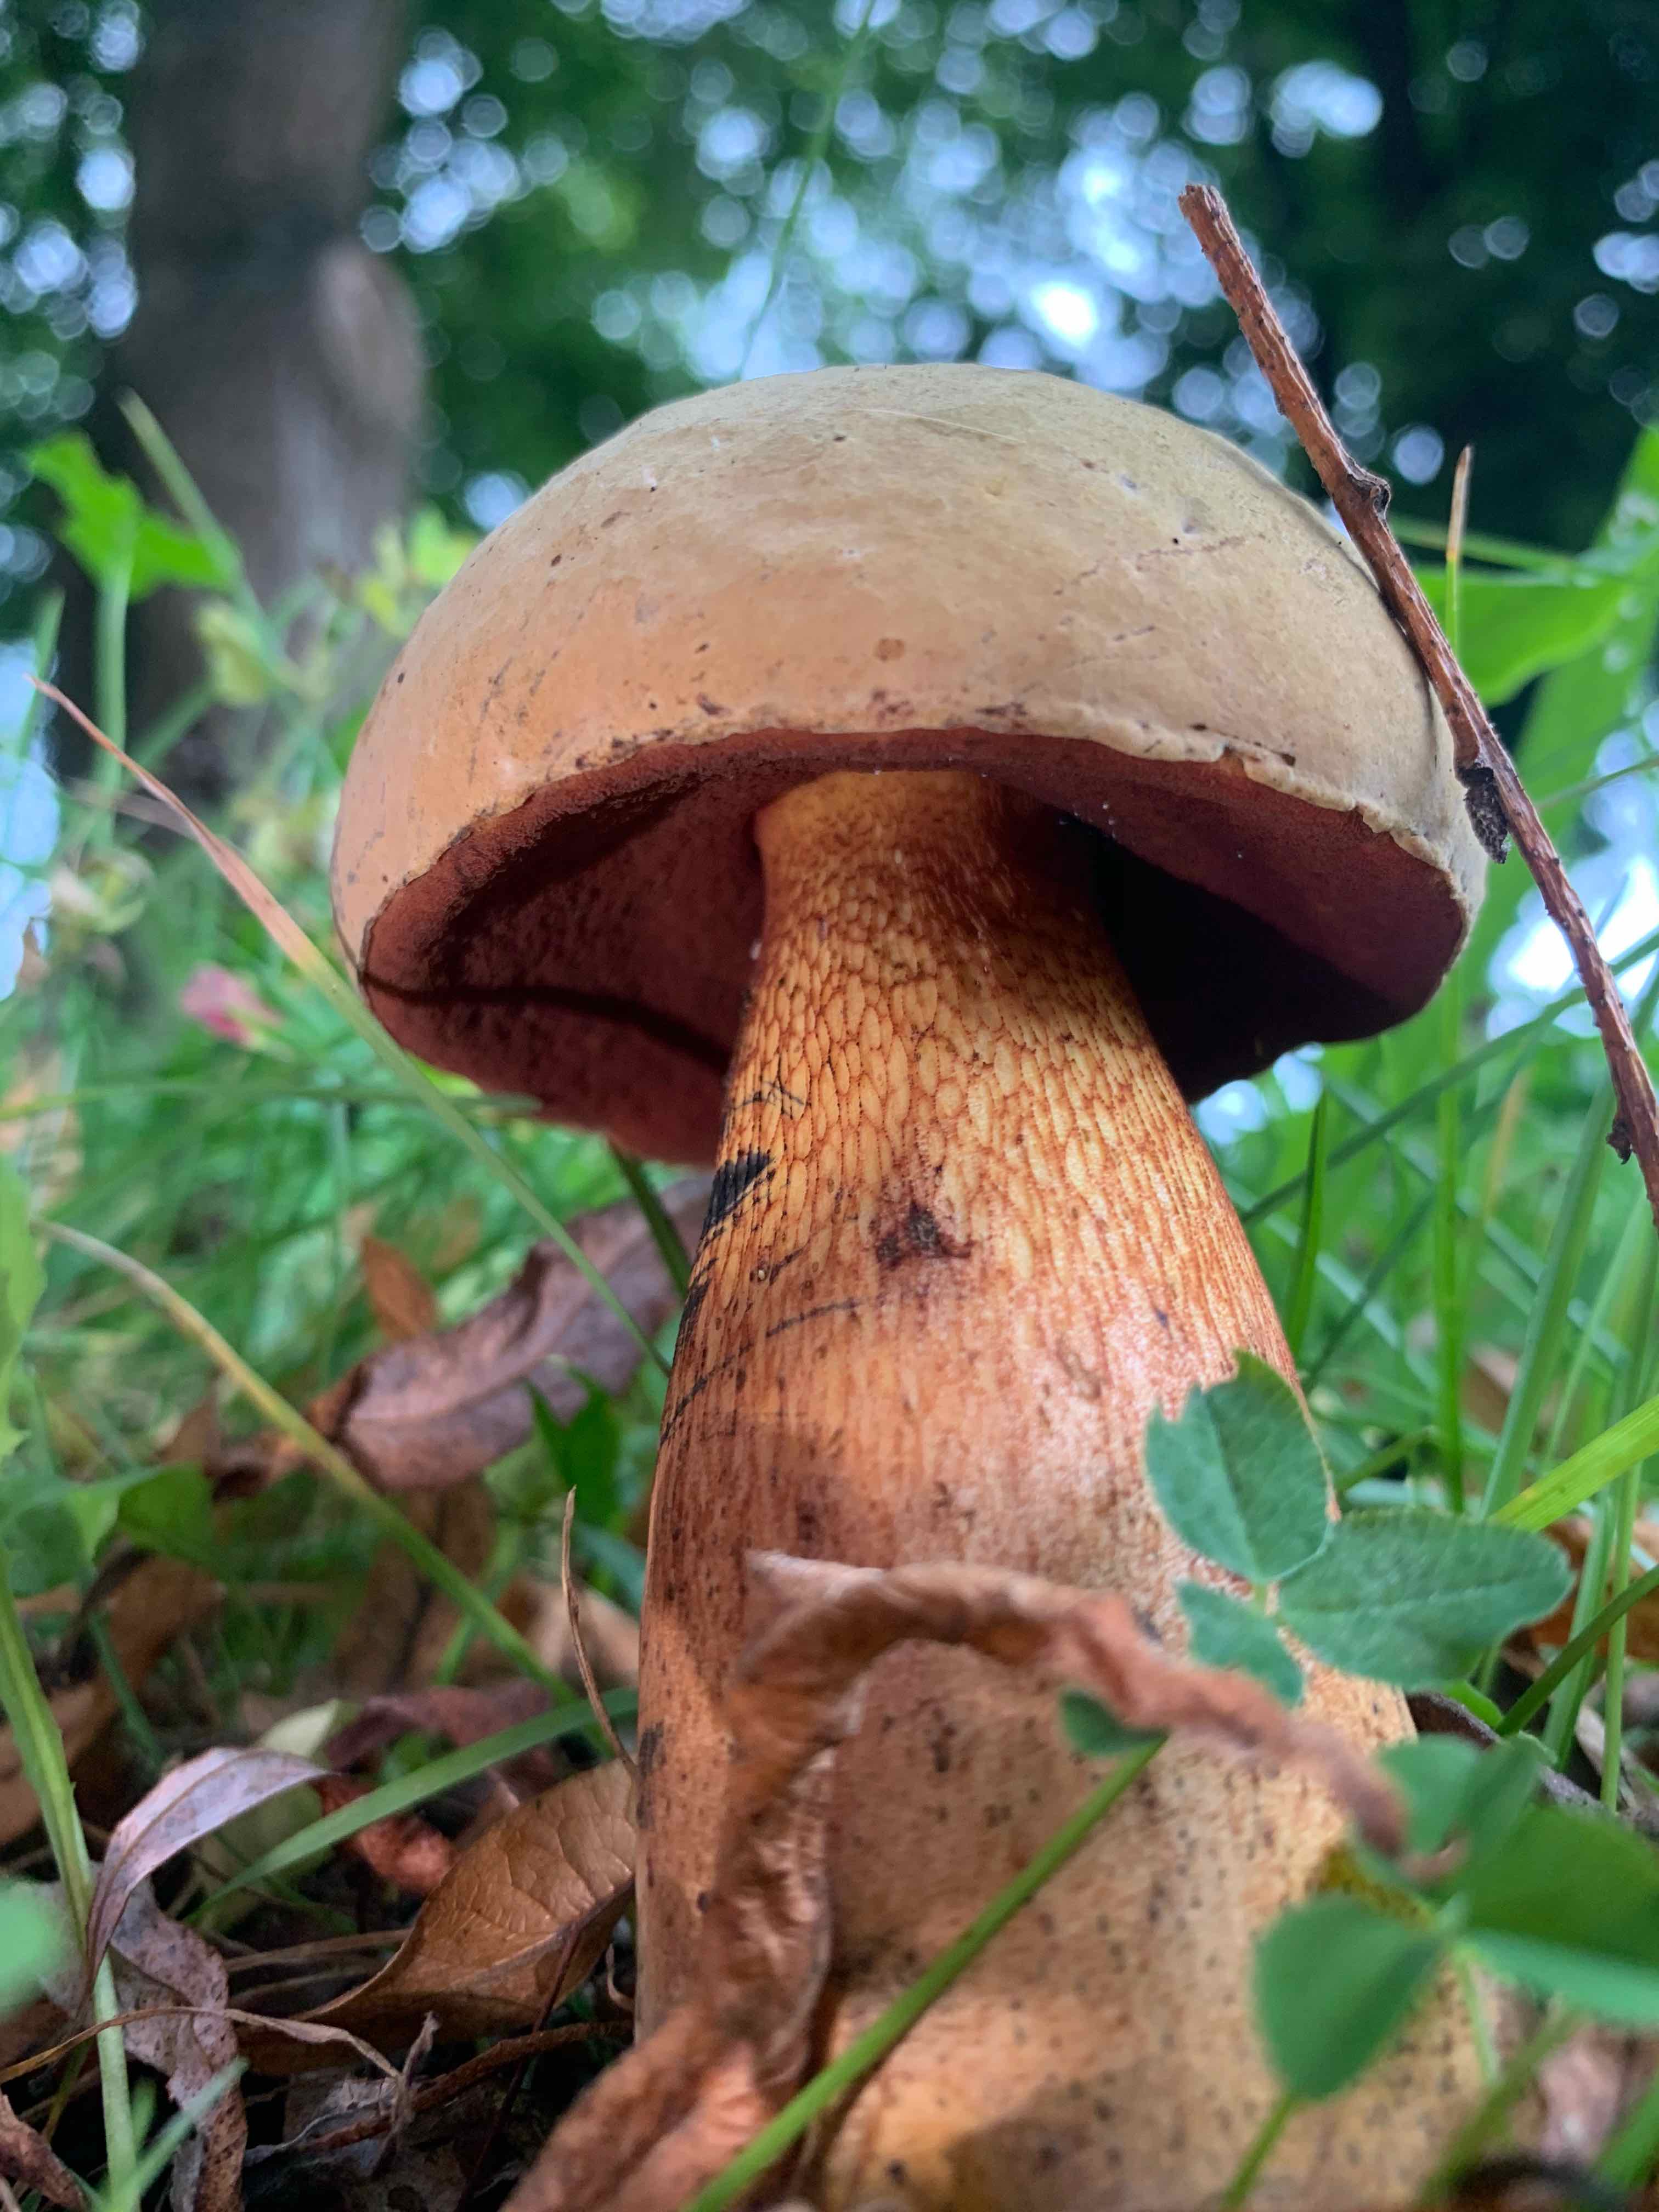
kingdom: Fungi
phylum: Basidiomycota
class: Agaricomycetes
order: Boletales
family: Boletaceae
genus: Suillellus
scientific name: Suillellus luridus
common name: netstokket indigorørhat
